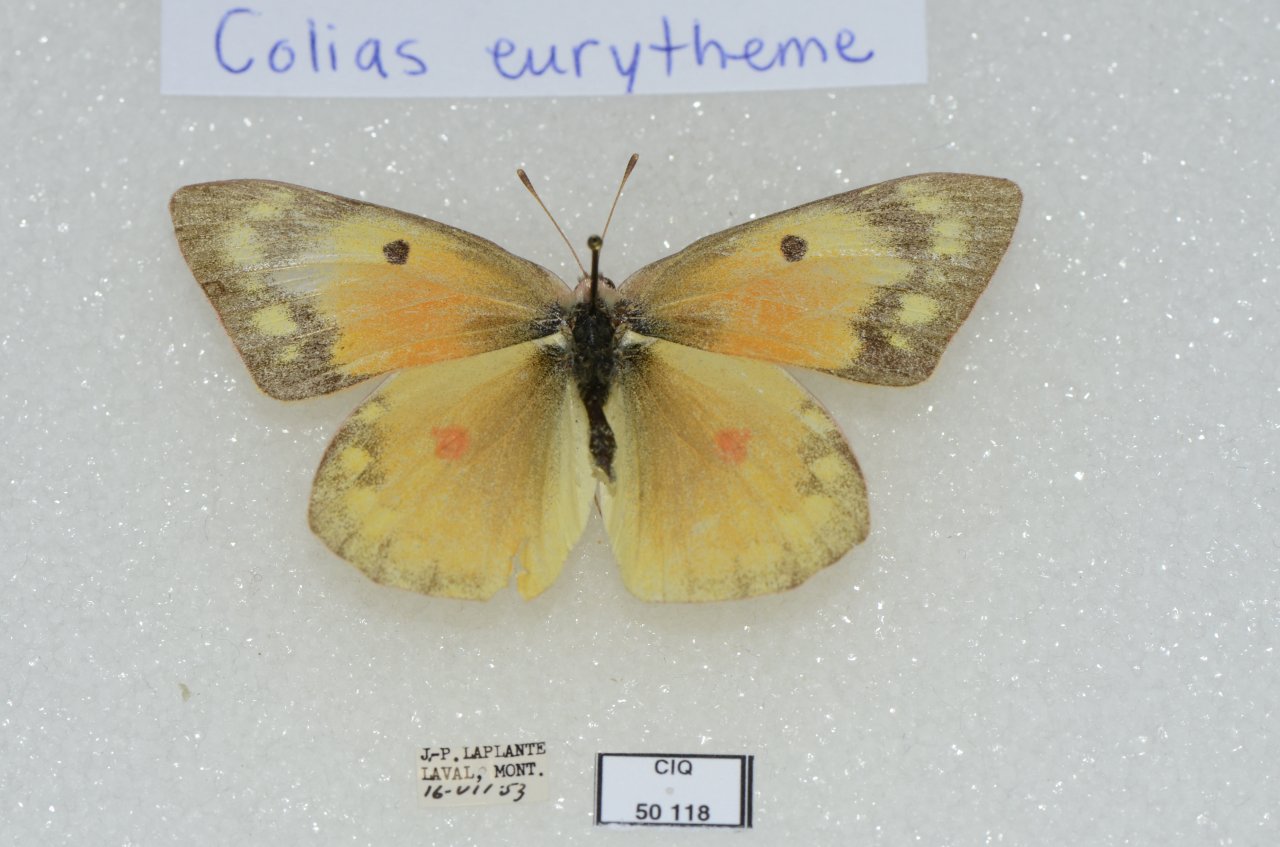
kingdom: Animalia
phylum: Arthropoda
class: Insecta
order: Lepidoptera
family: Pieridae
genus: Colias
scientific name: Colias eurytheme
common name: Orange Sulphur
